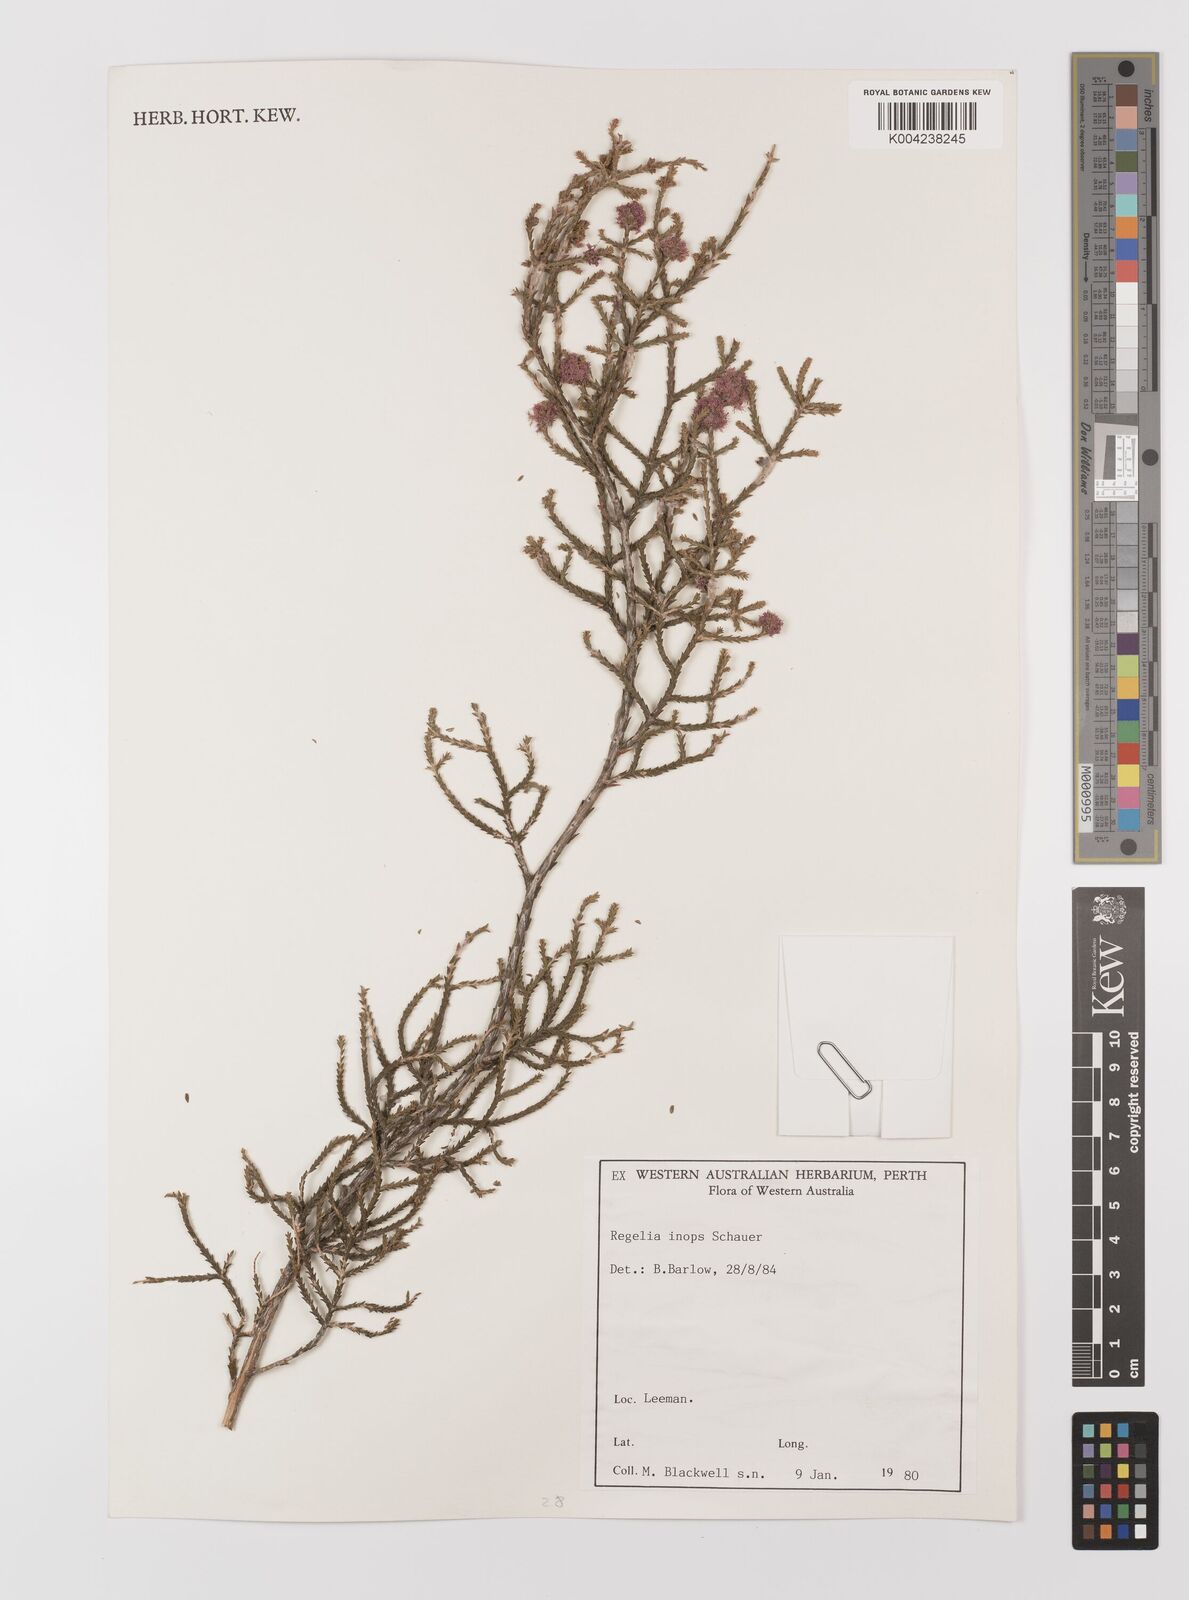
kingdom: Plantae
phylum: Tracheophyta
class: Magnoliopsida
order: Myrtales
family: Myrtaceae
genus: Melaleuca
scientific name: Melaleuca inops
